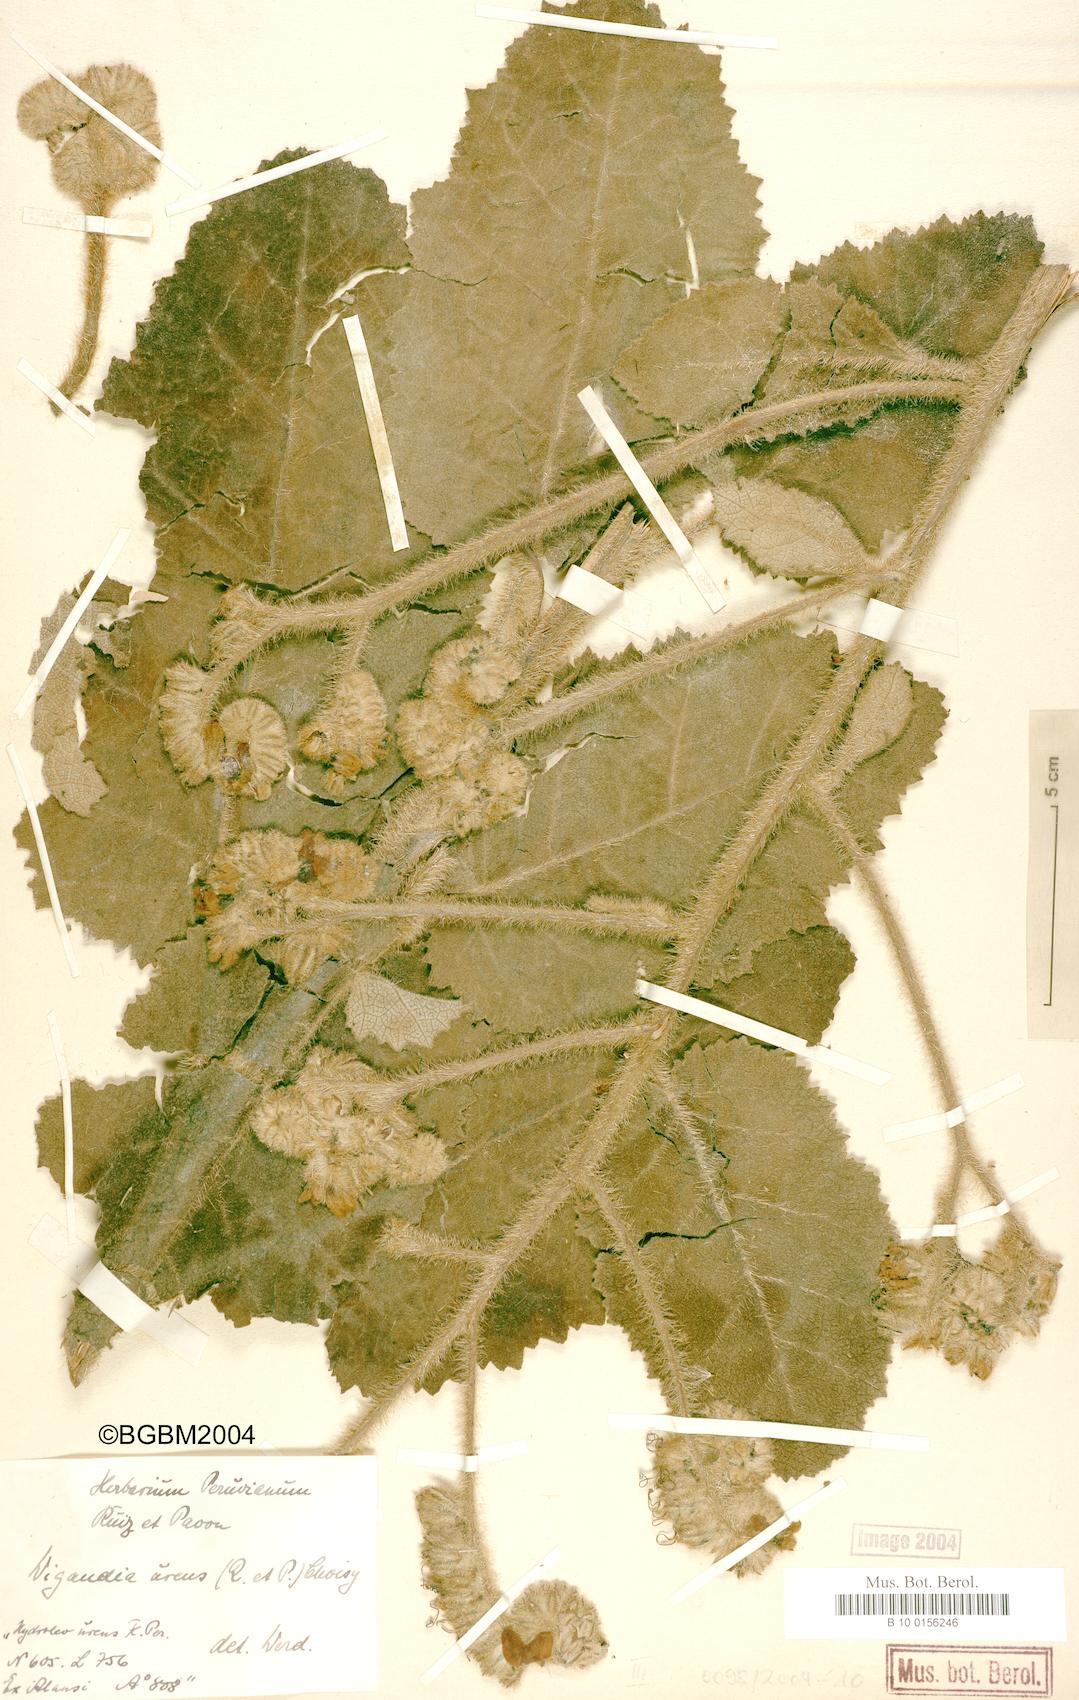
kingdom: Plantae
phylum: Tracheophyta
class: Magnoliopsida
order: Boraginales
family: Namaceae
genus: Wigandia
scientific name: Wigandia urens
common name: Caracus wigandia
